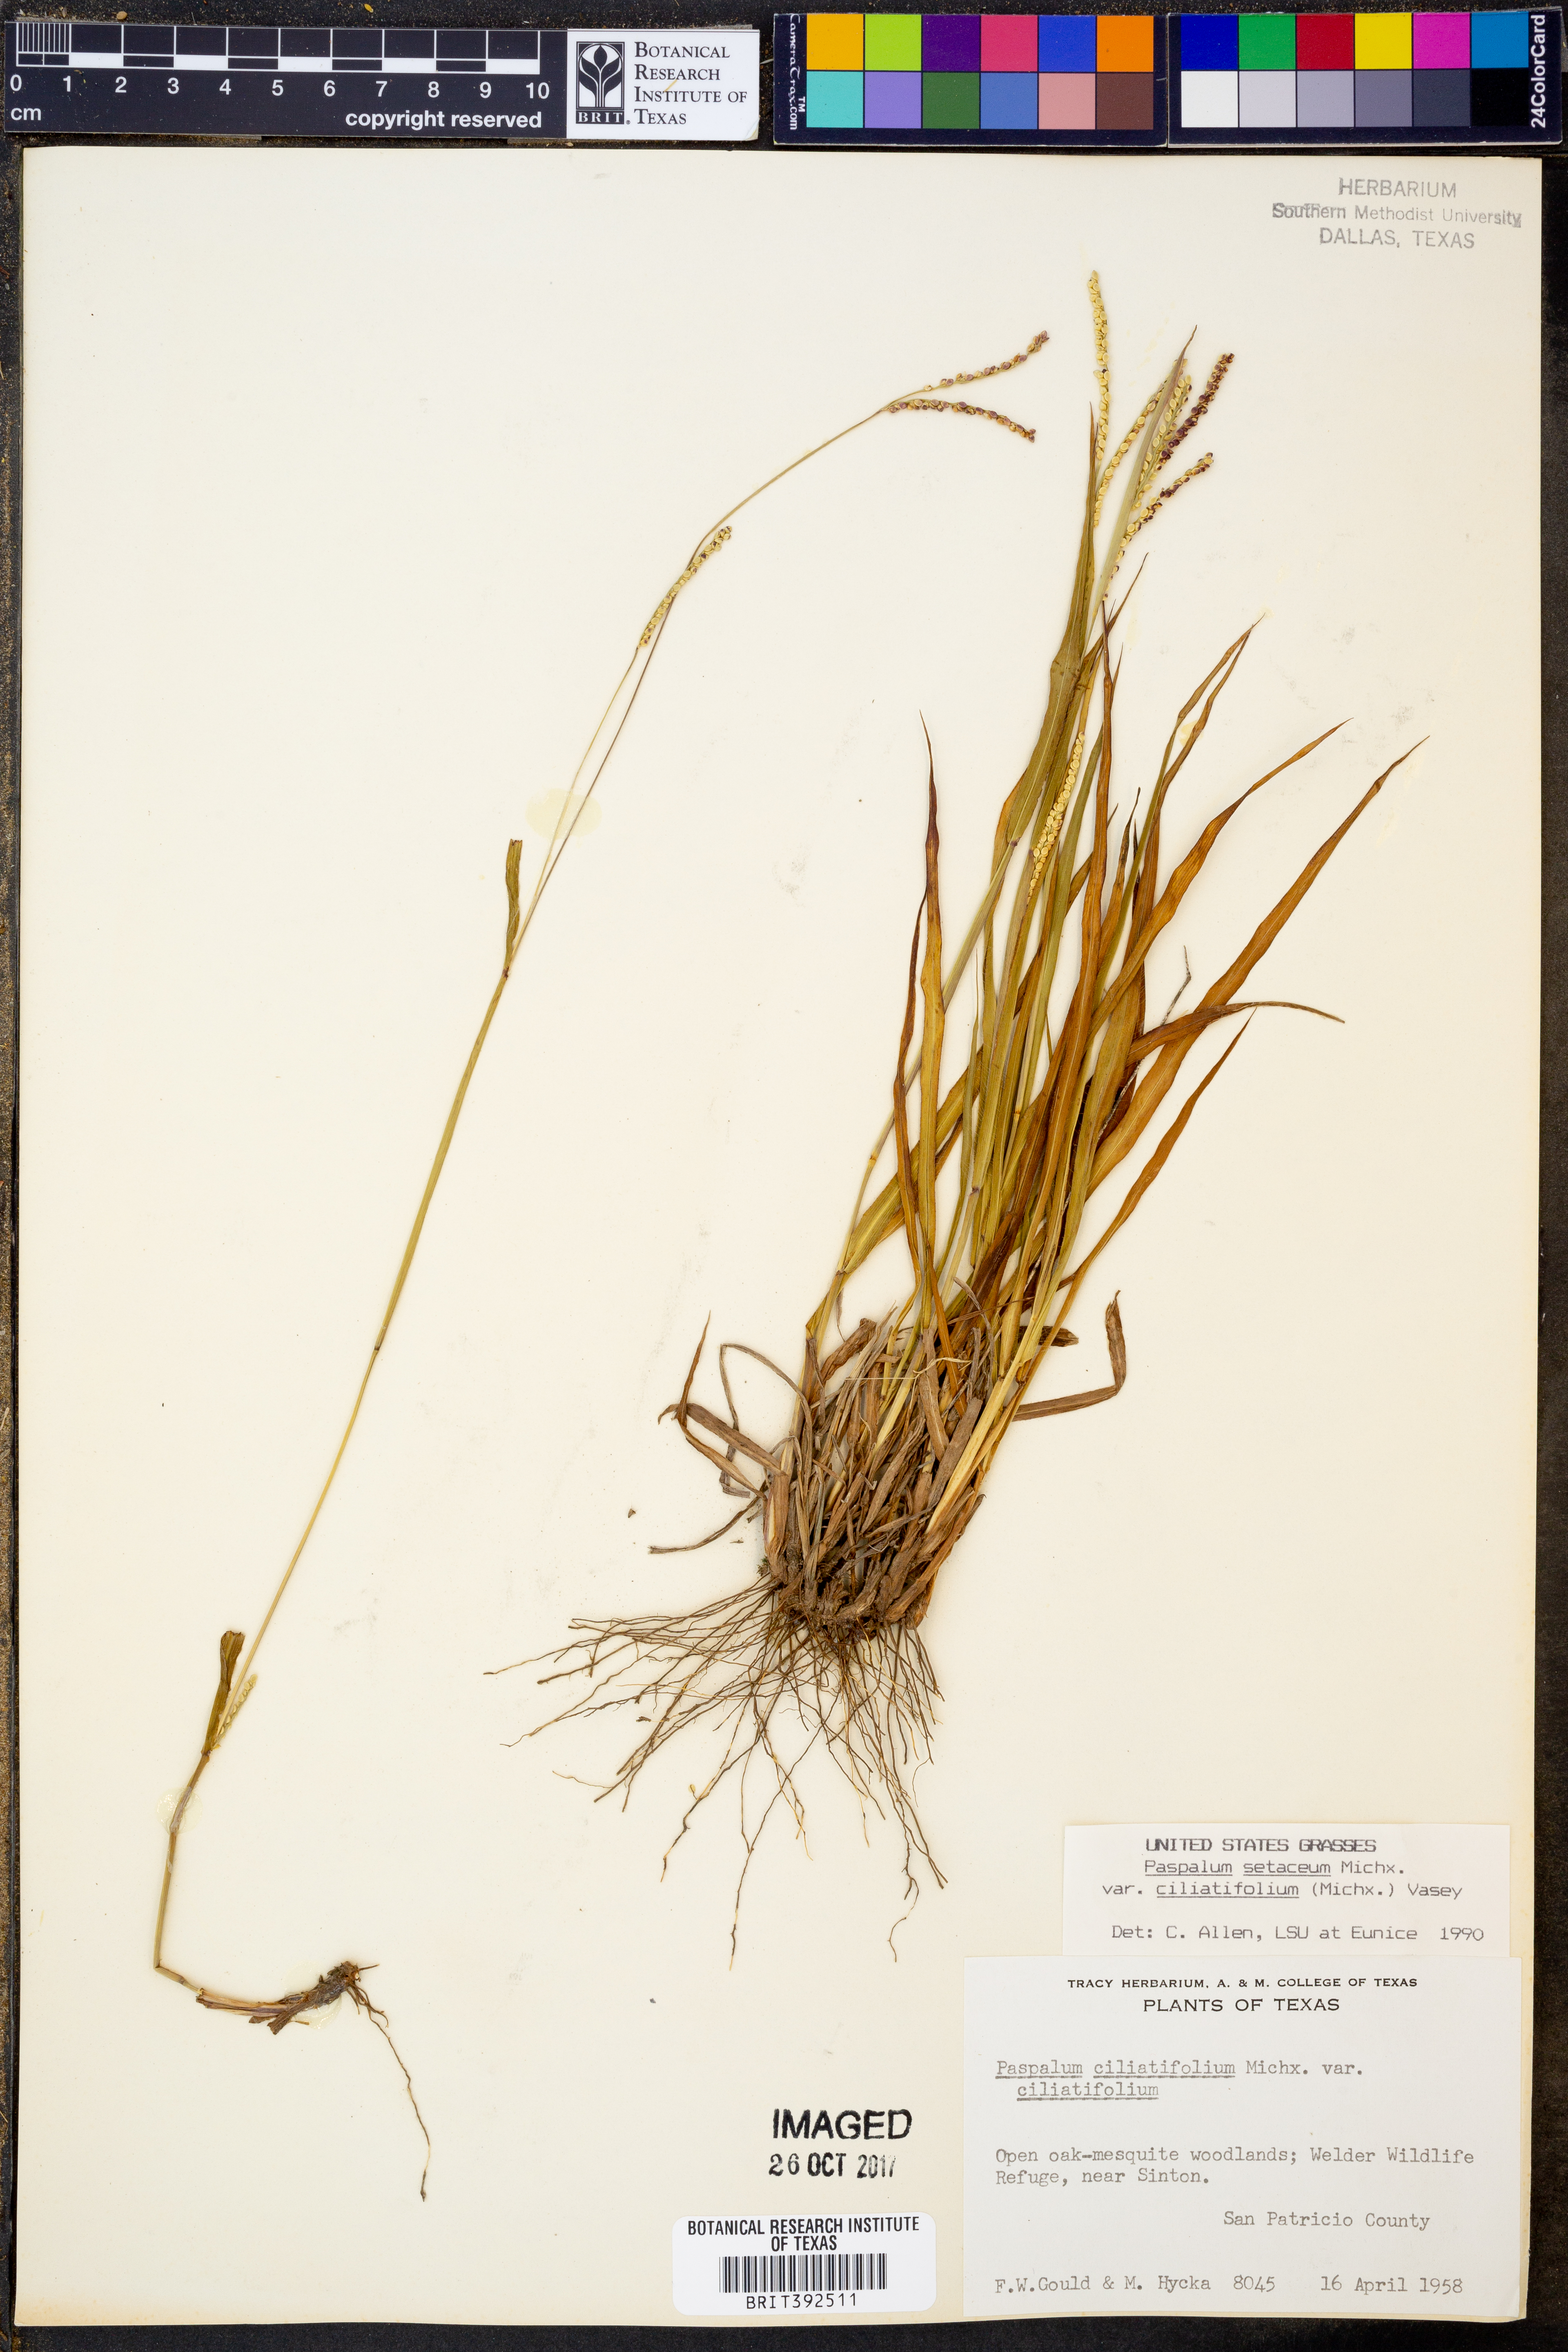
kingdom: Plantae
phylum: Tracheophyta
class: Liliopsida
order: Poales
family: Poaceae
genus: Paspalum
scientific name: Paspalum setaceum
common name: Slender paspalum
